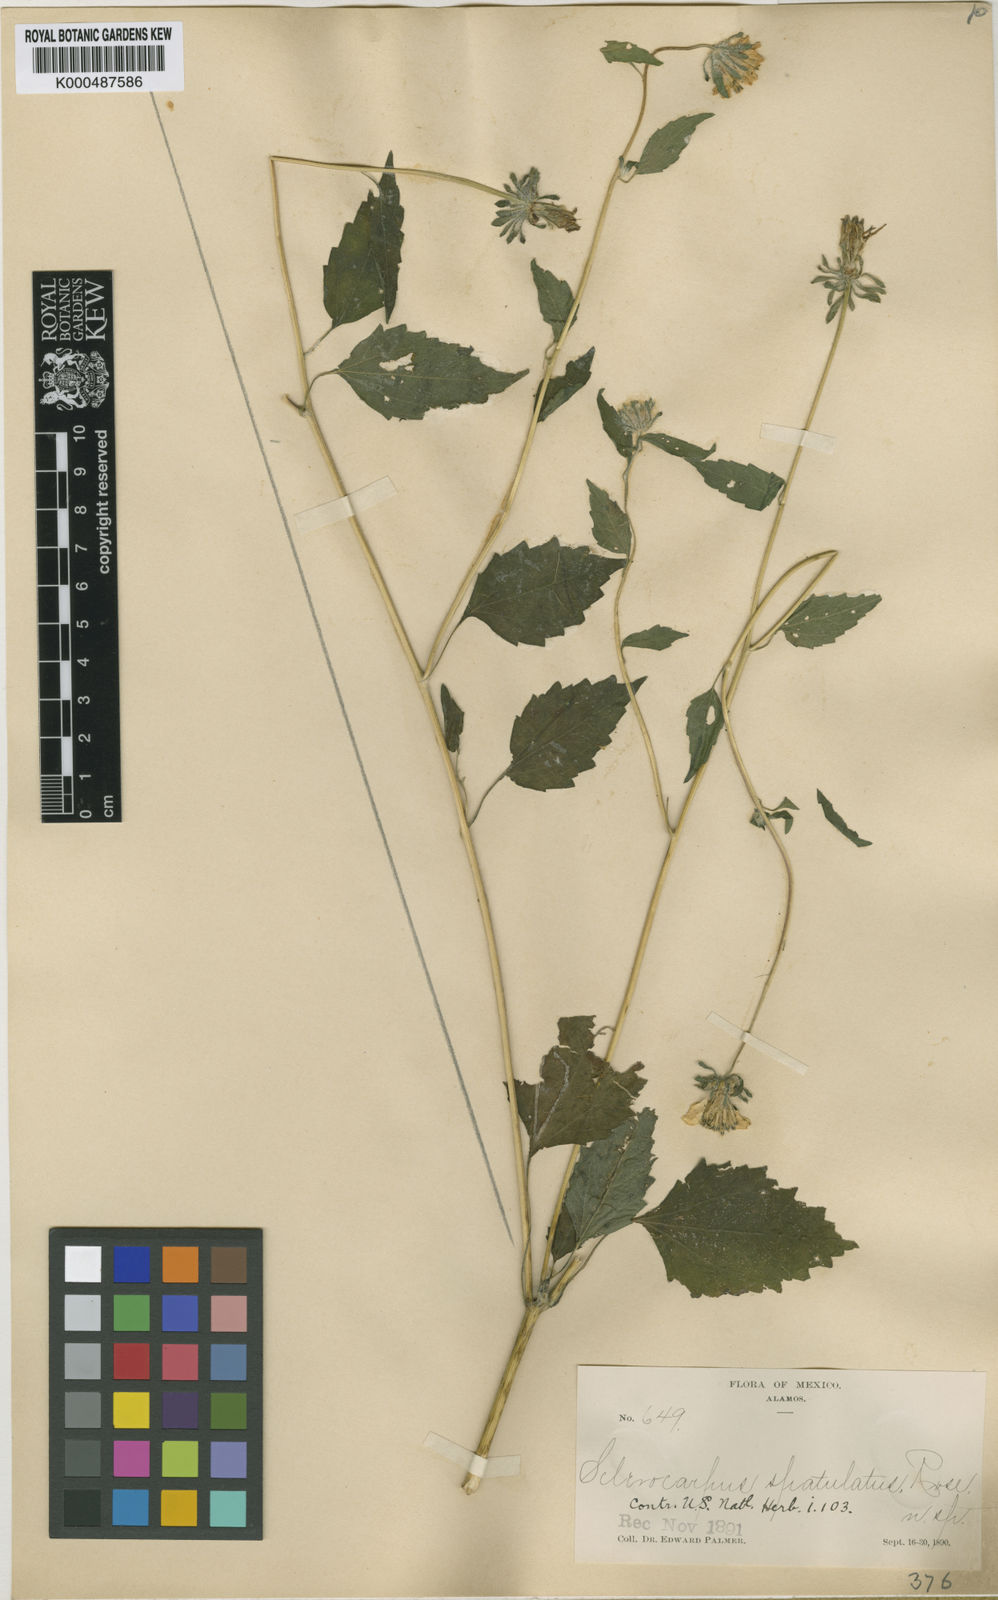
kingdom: Plantae
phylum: Tracheophyta
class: Magnoliopsida
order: Asterales
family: Asteraceae
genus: Sclerocarpus
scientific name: Sclerocarpus spathulatus
